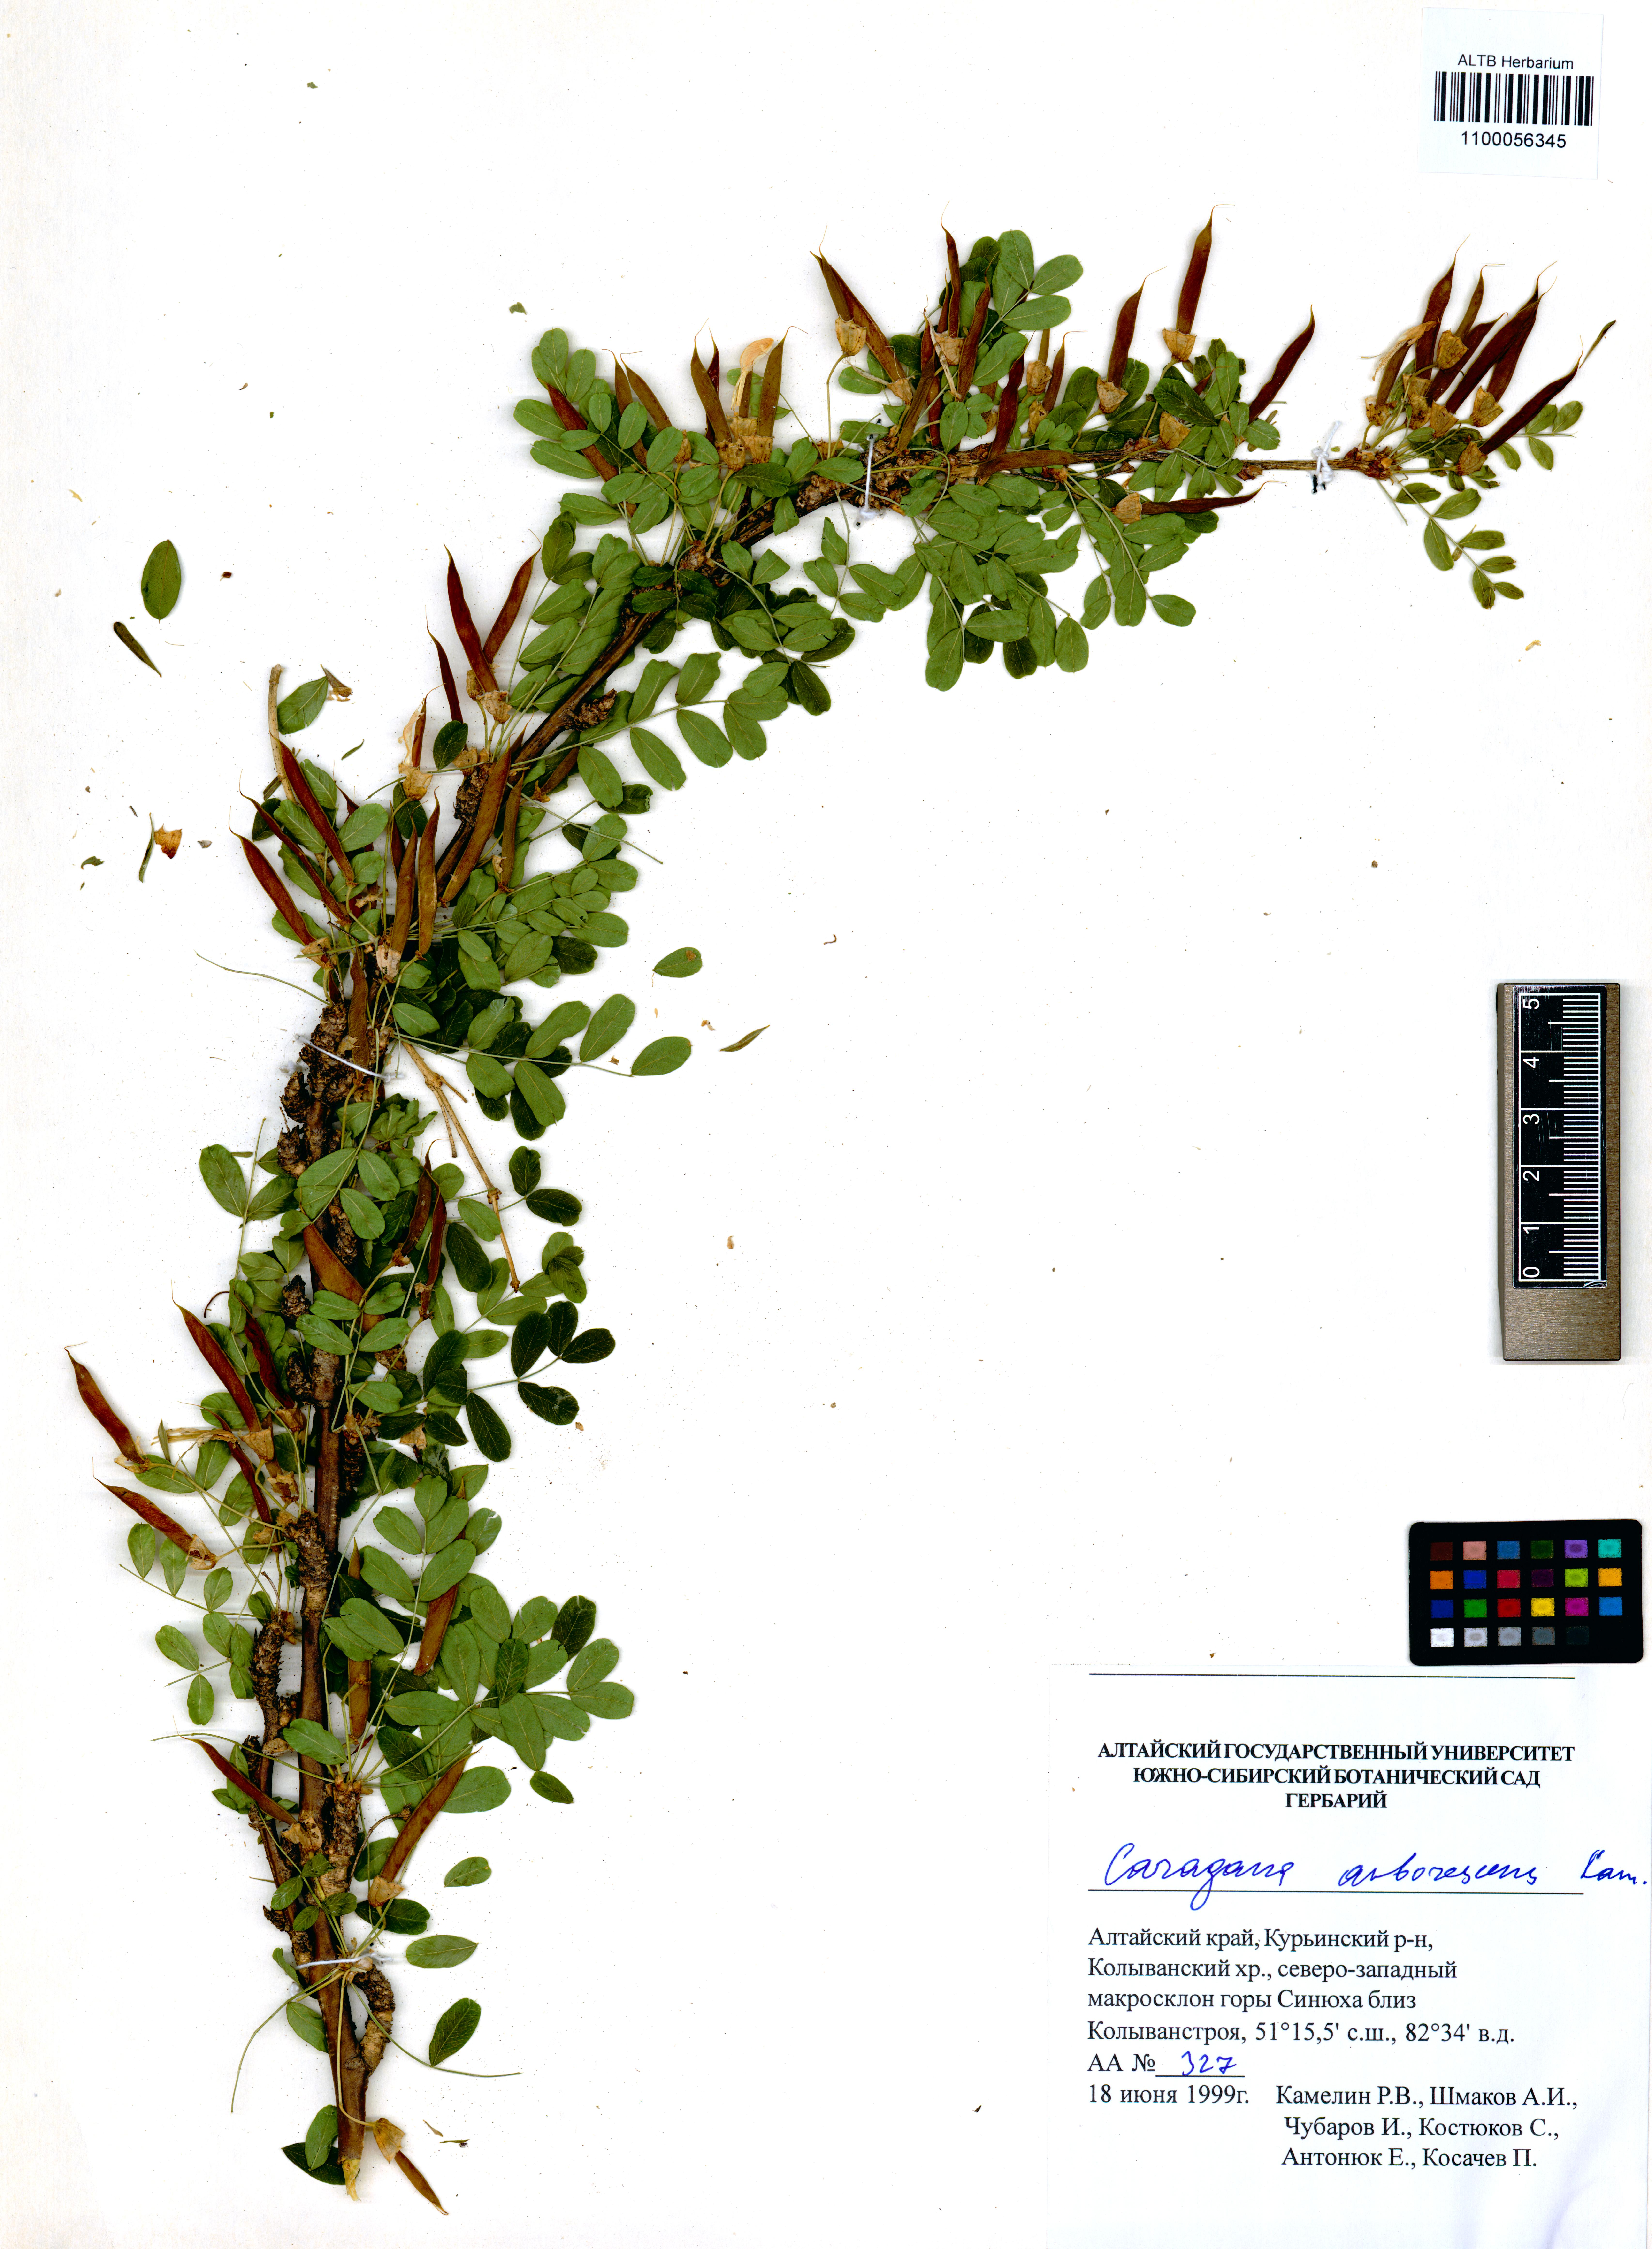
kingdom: Plantae
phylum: Tracheophyta
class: Magnoliopsida
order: Fabales
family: Fabaceae
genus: Caragana
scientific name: Caragana arborescens
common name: Siberian peashrub
